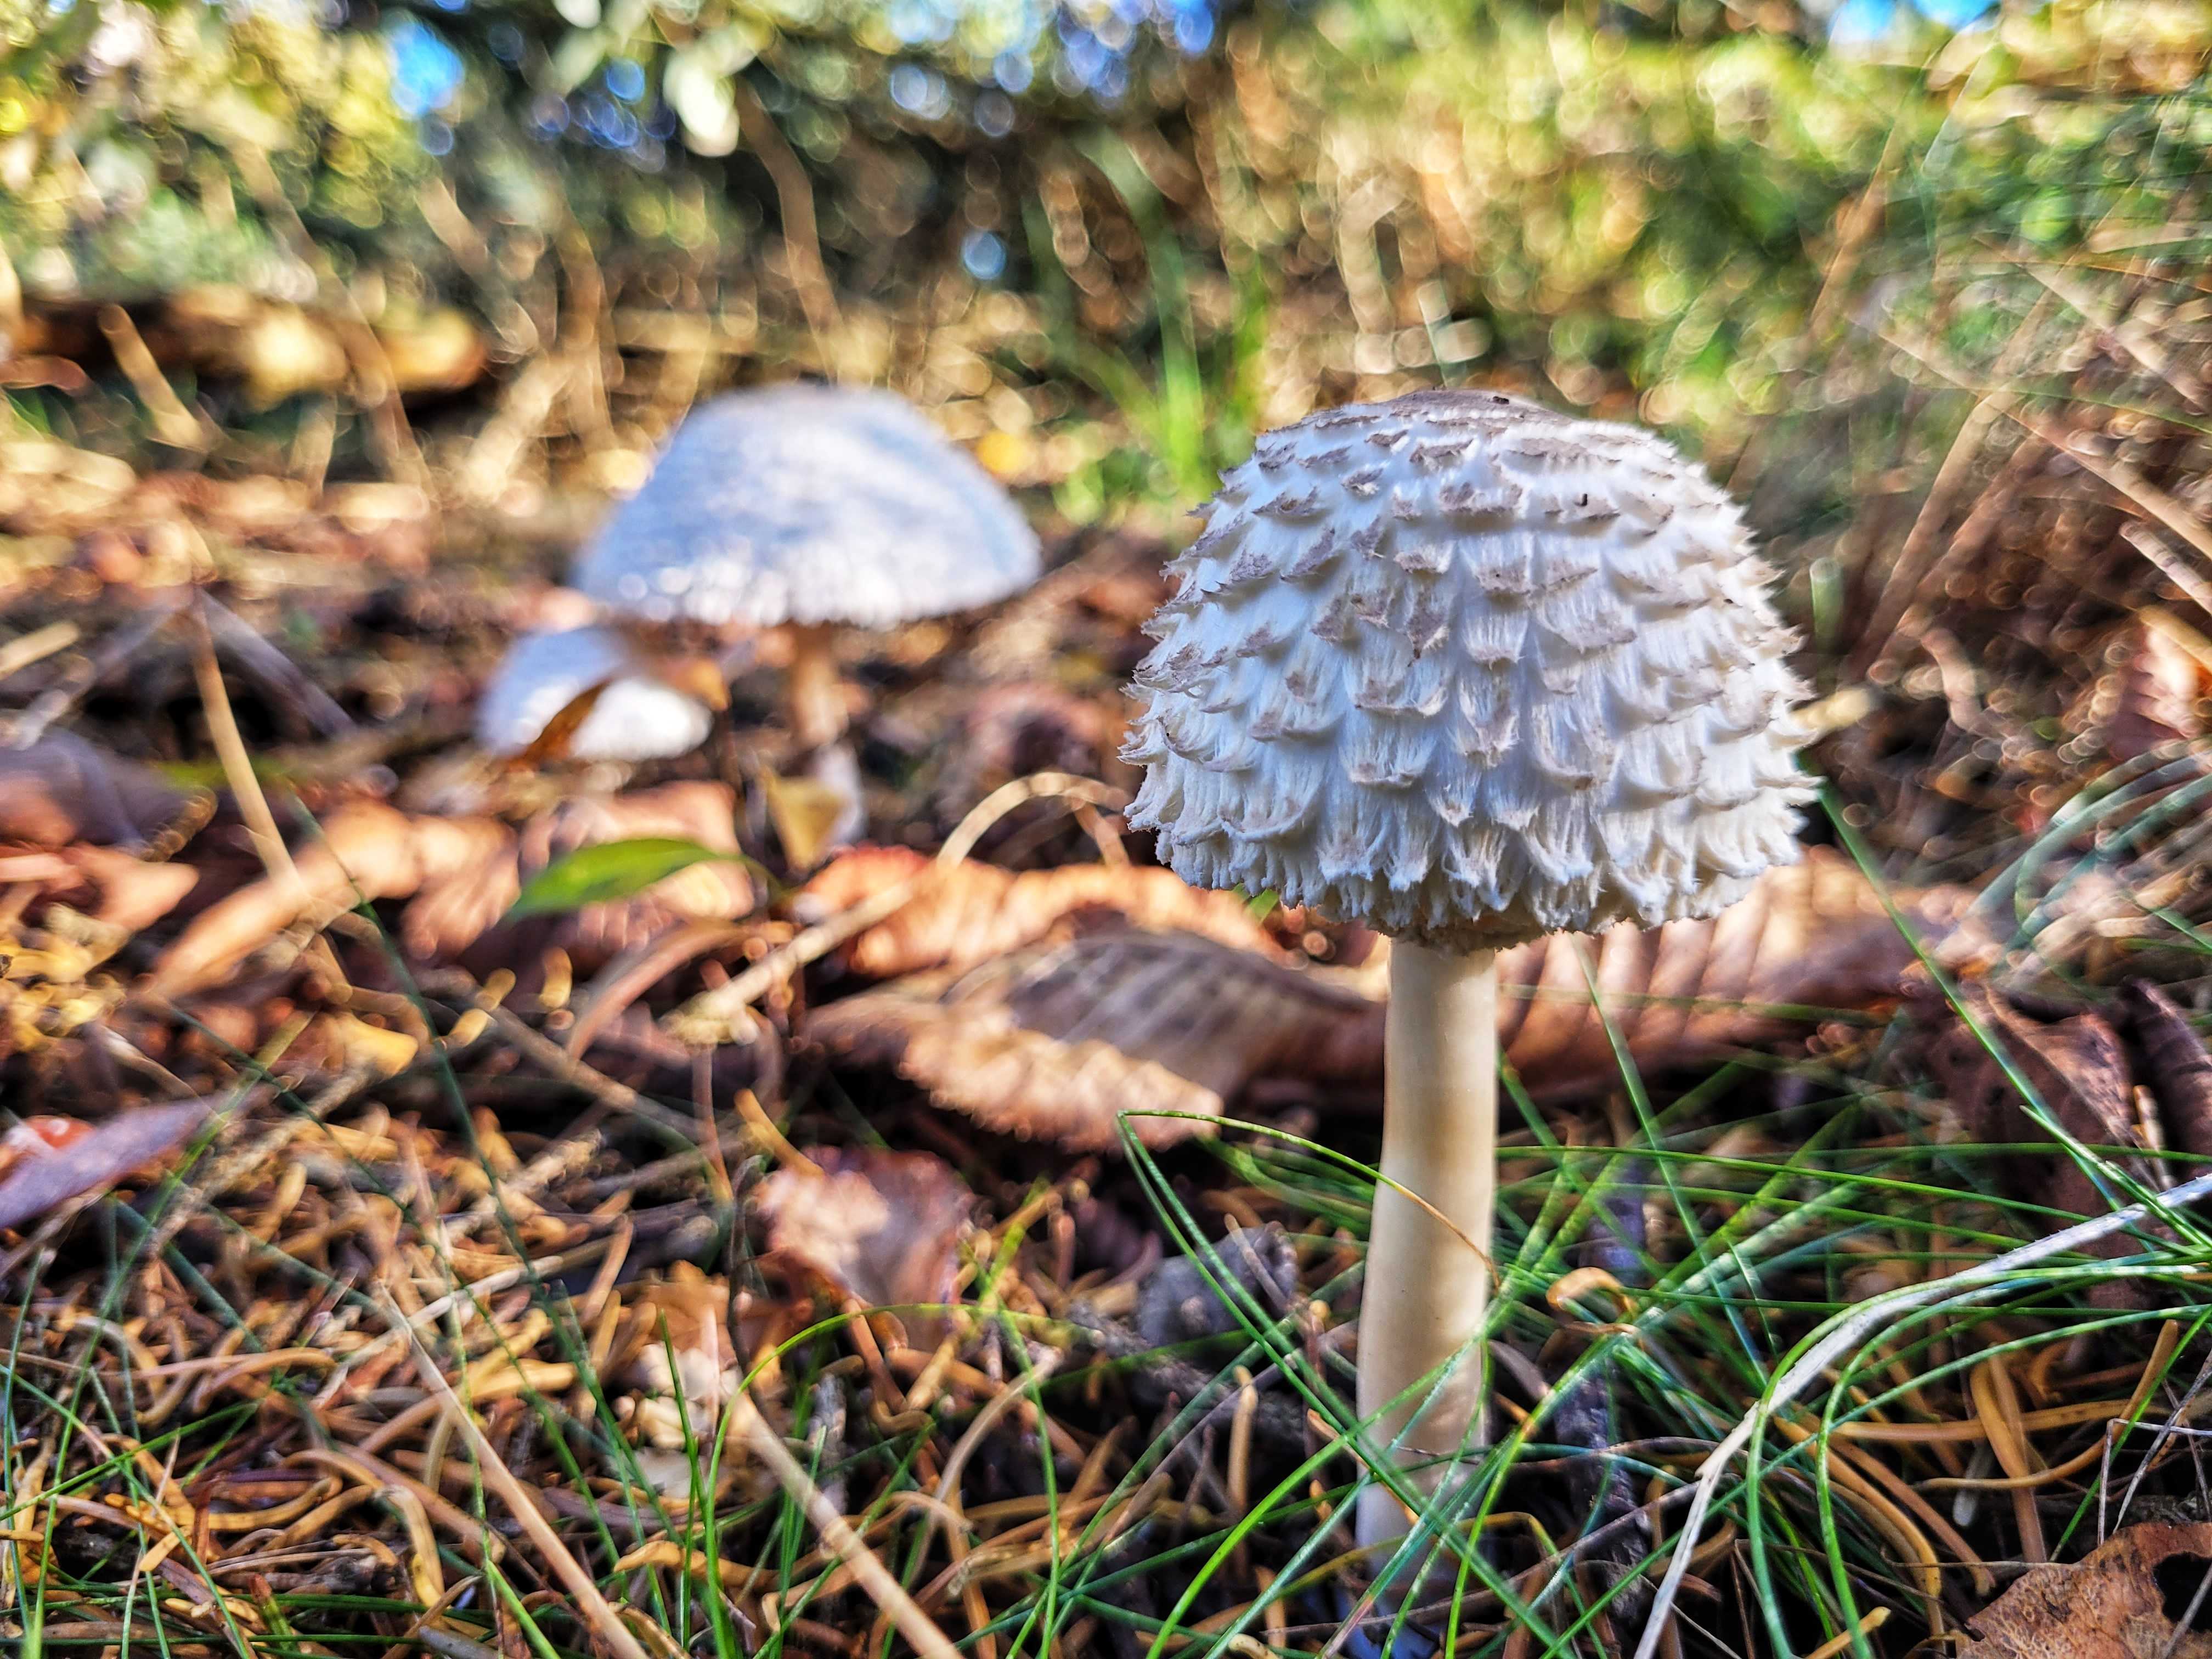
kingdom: Fungi
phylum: Basidiomycota
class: Agaricomycetes
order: Agaricales
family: Agaricaceae
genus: Leucoagaricus
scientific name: Leucoagaricus nympharum
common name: gran-silkehat
